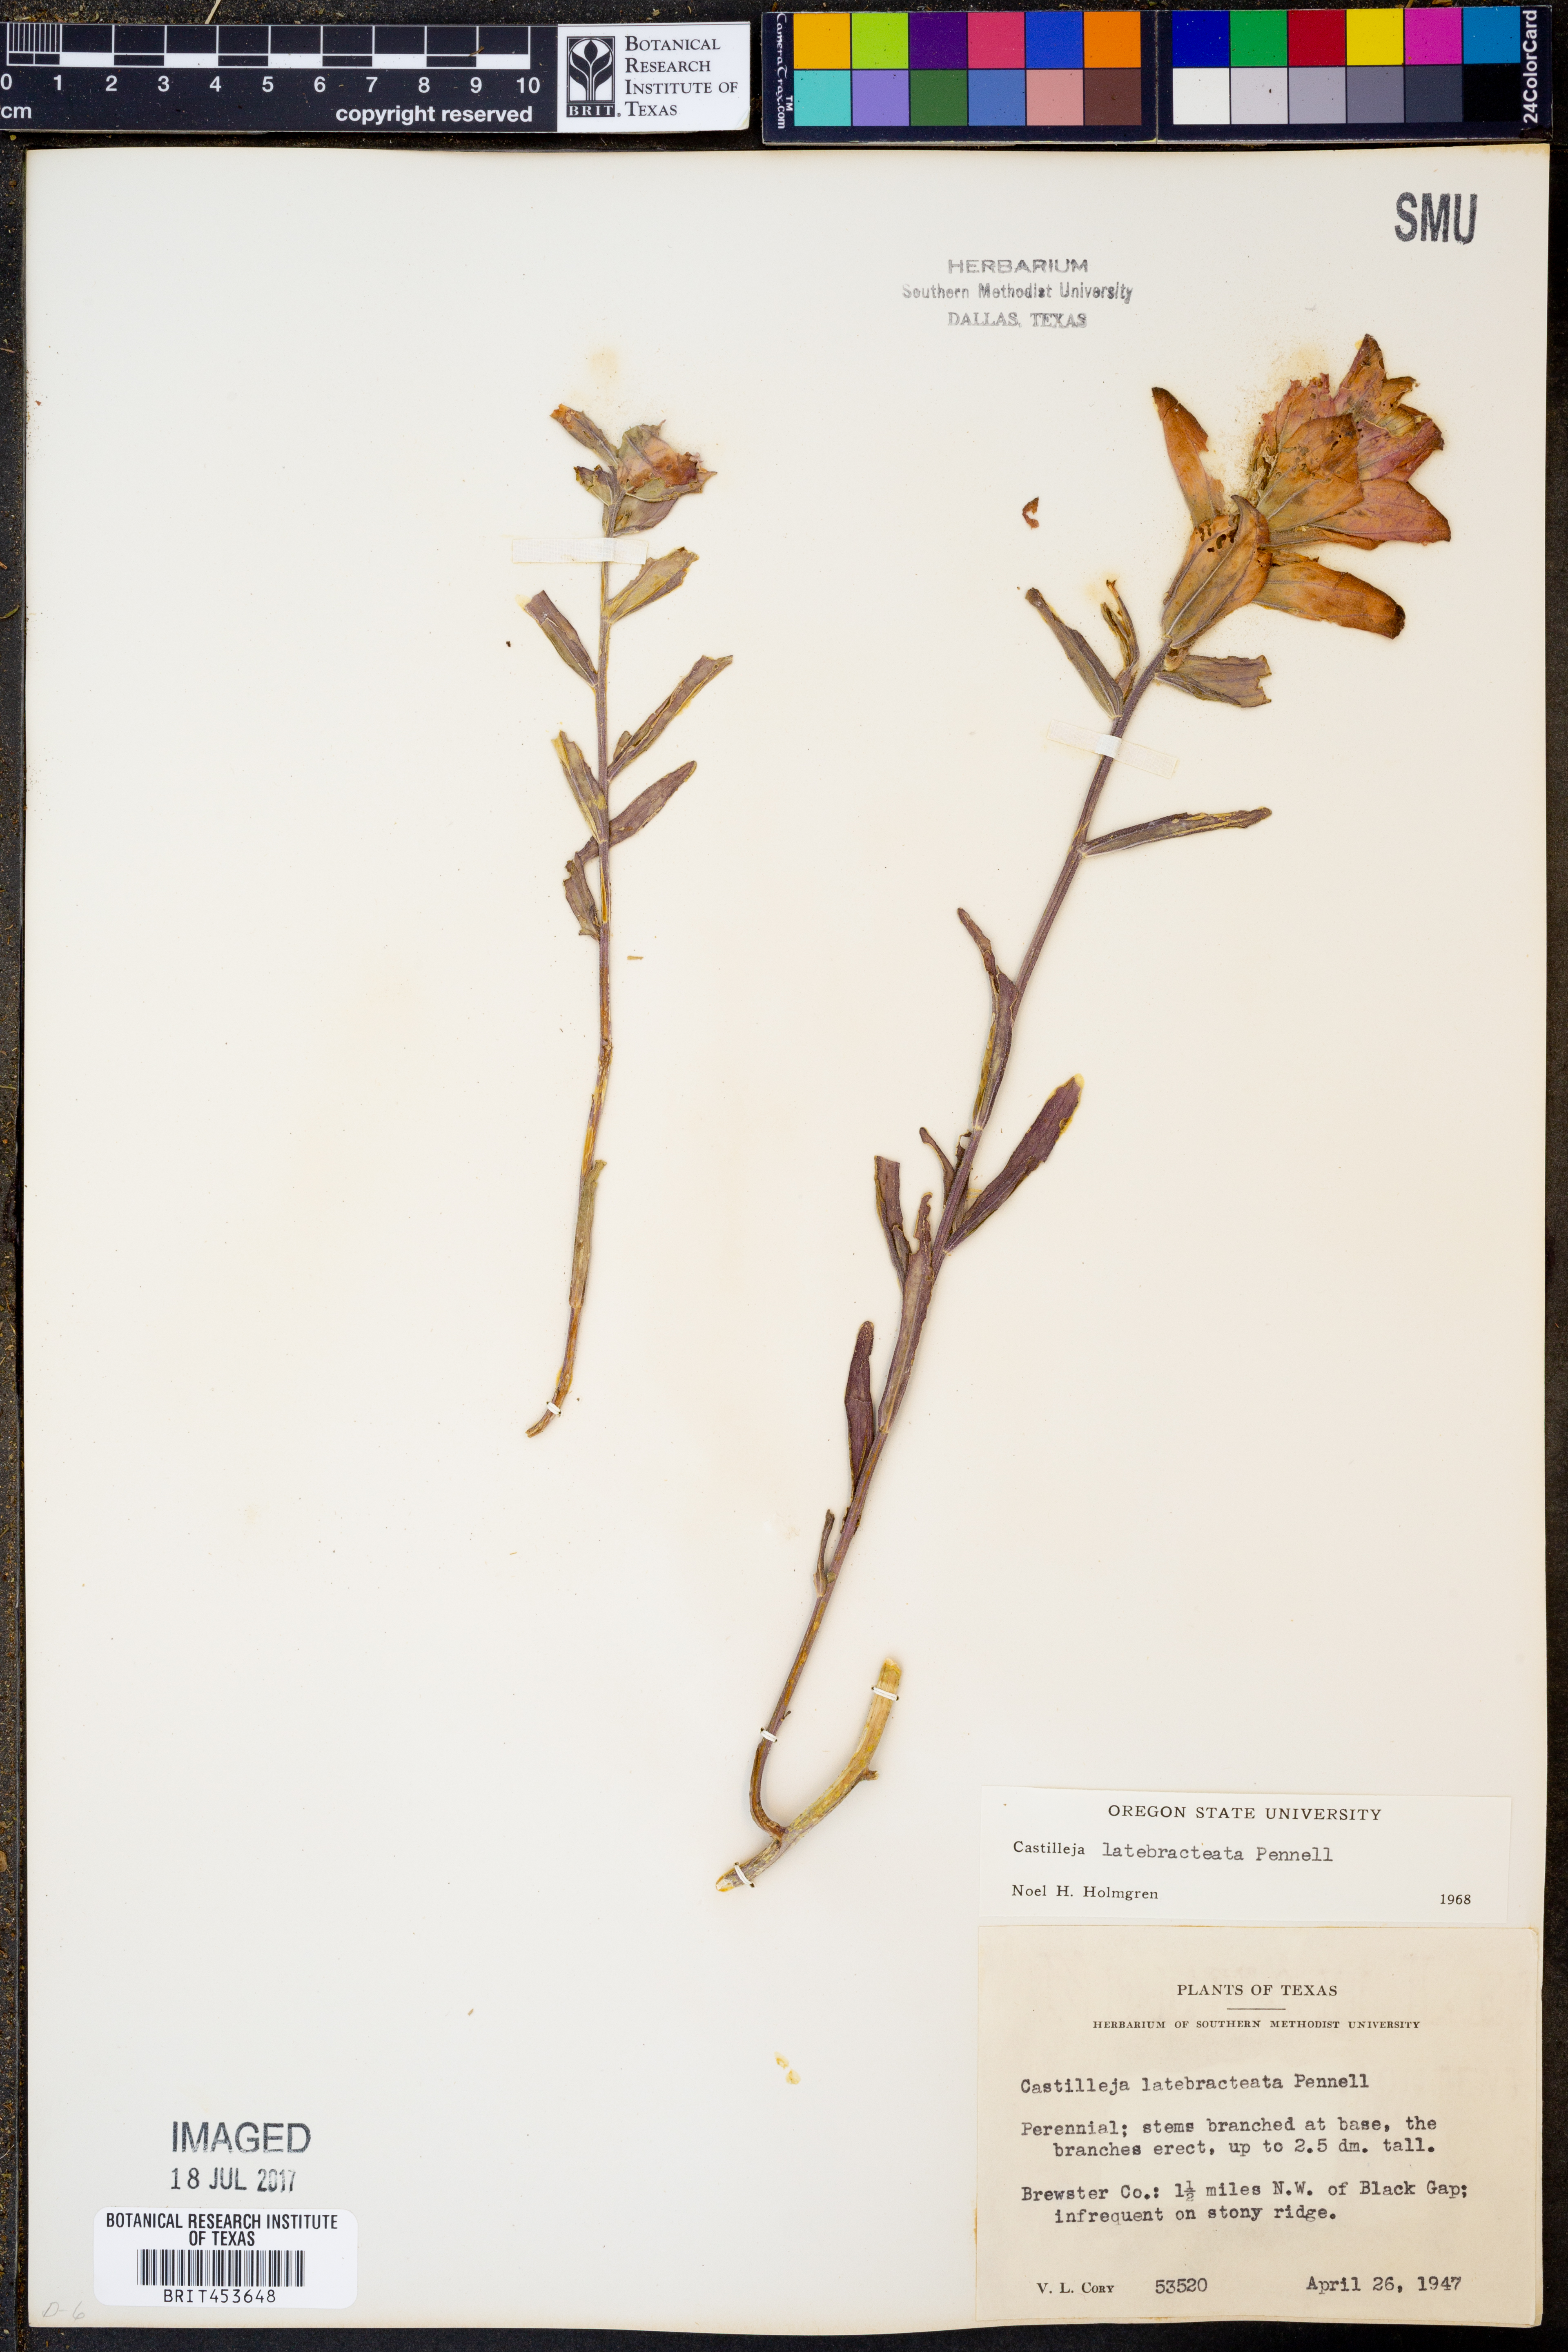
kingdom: Plantae
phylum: Tracheophyta
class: Magnoliopsida
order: Lamiales
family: Orobanchaceae
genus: Castilleja
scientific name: Castilleja rigida
